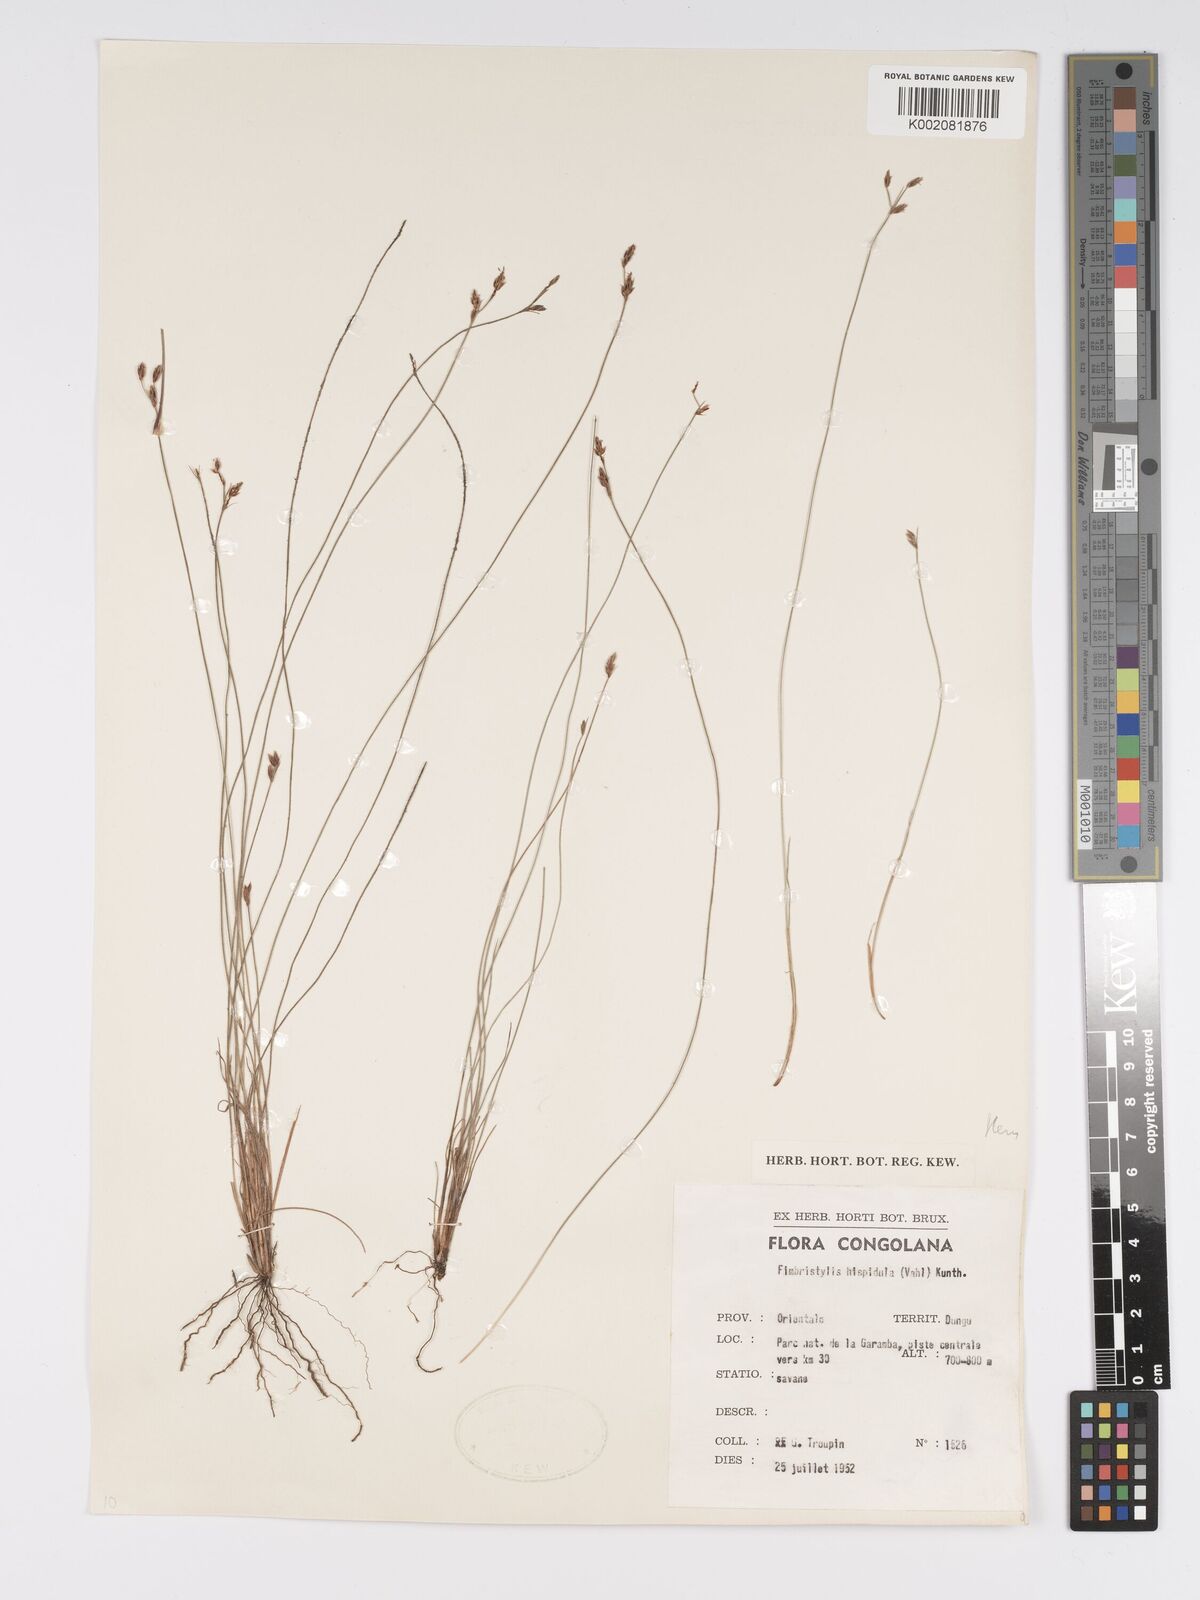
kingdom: Plantae
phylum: Tracheophyta
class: Liliopsida
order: Poales
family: Cyperaceae
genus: Bulbostylis
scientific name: Bulbostylis hispidula
